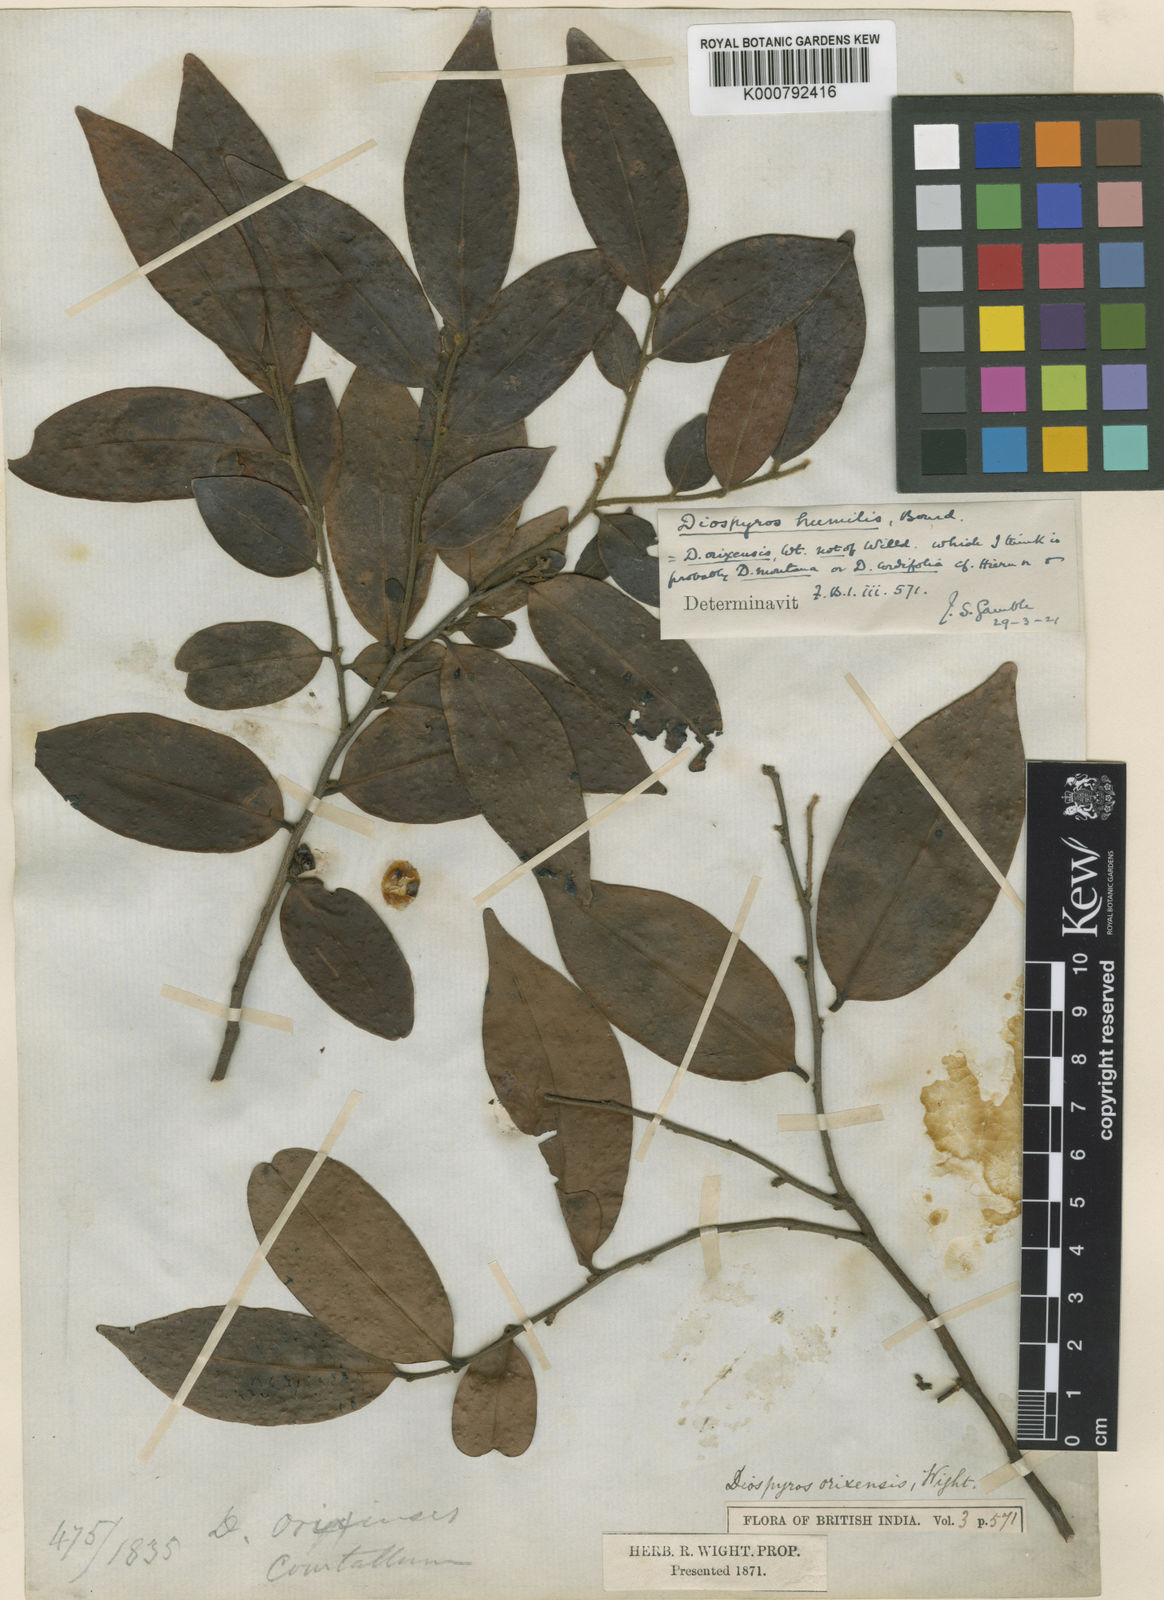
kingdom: Plantae
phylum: Tracheophyta
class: Magnoliopsida
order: Ericales
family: Ebenaceae
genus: Diospyros
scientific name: Diospyros montana
